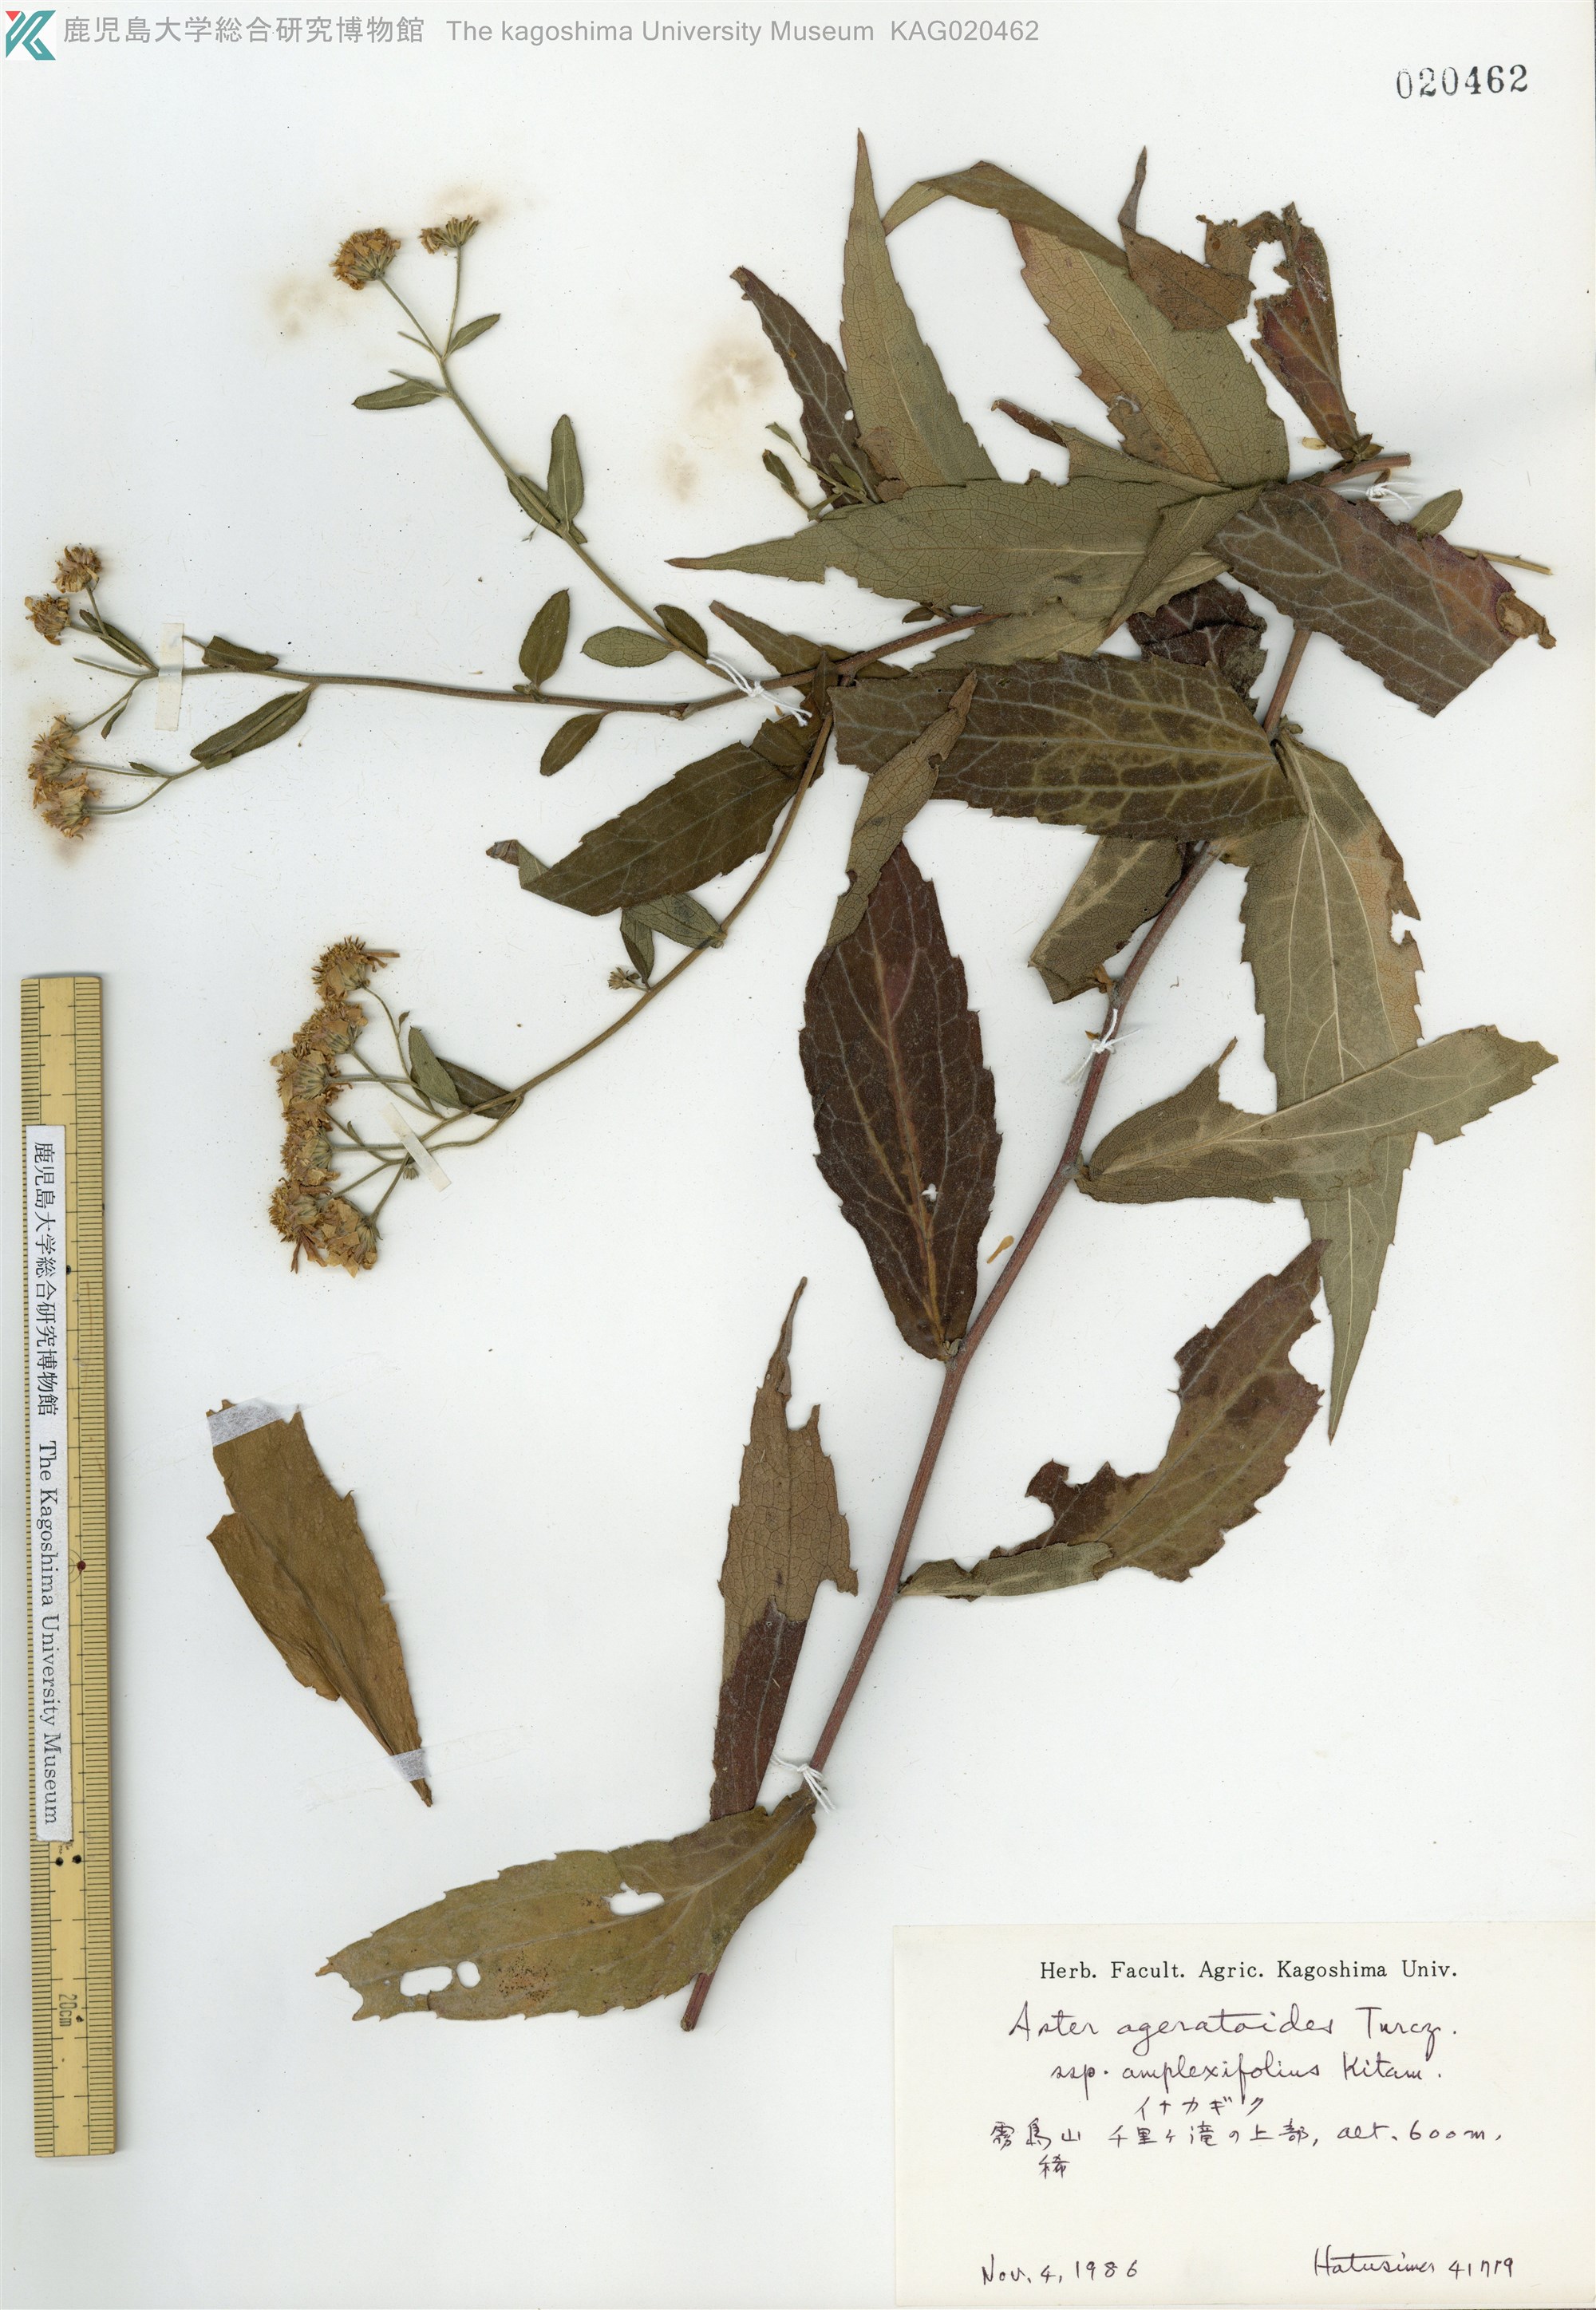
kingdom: Plantae
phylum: Tracheophyta
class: Magnoliopsida
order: Asterales
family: Asteraceae
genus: Aster
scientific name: Aster satsumensis
